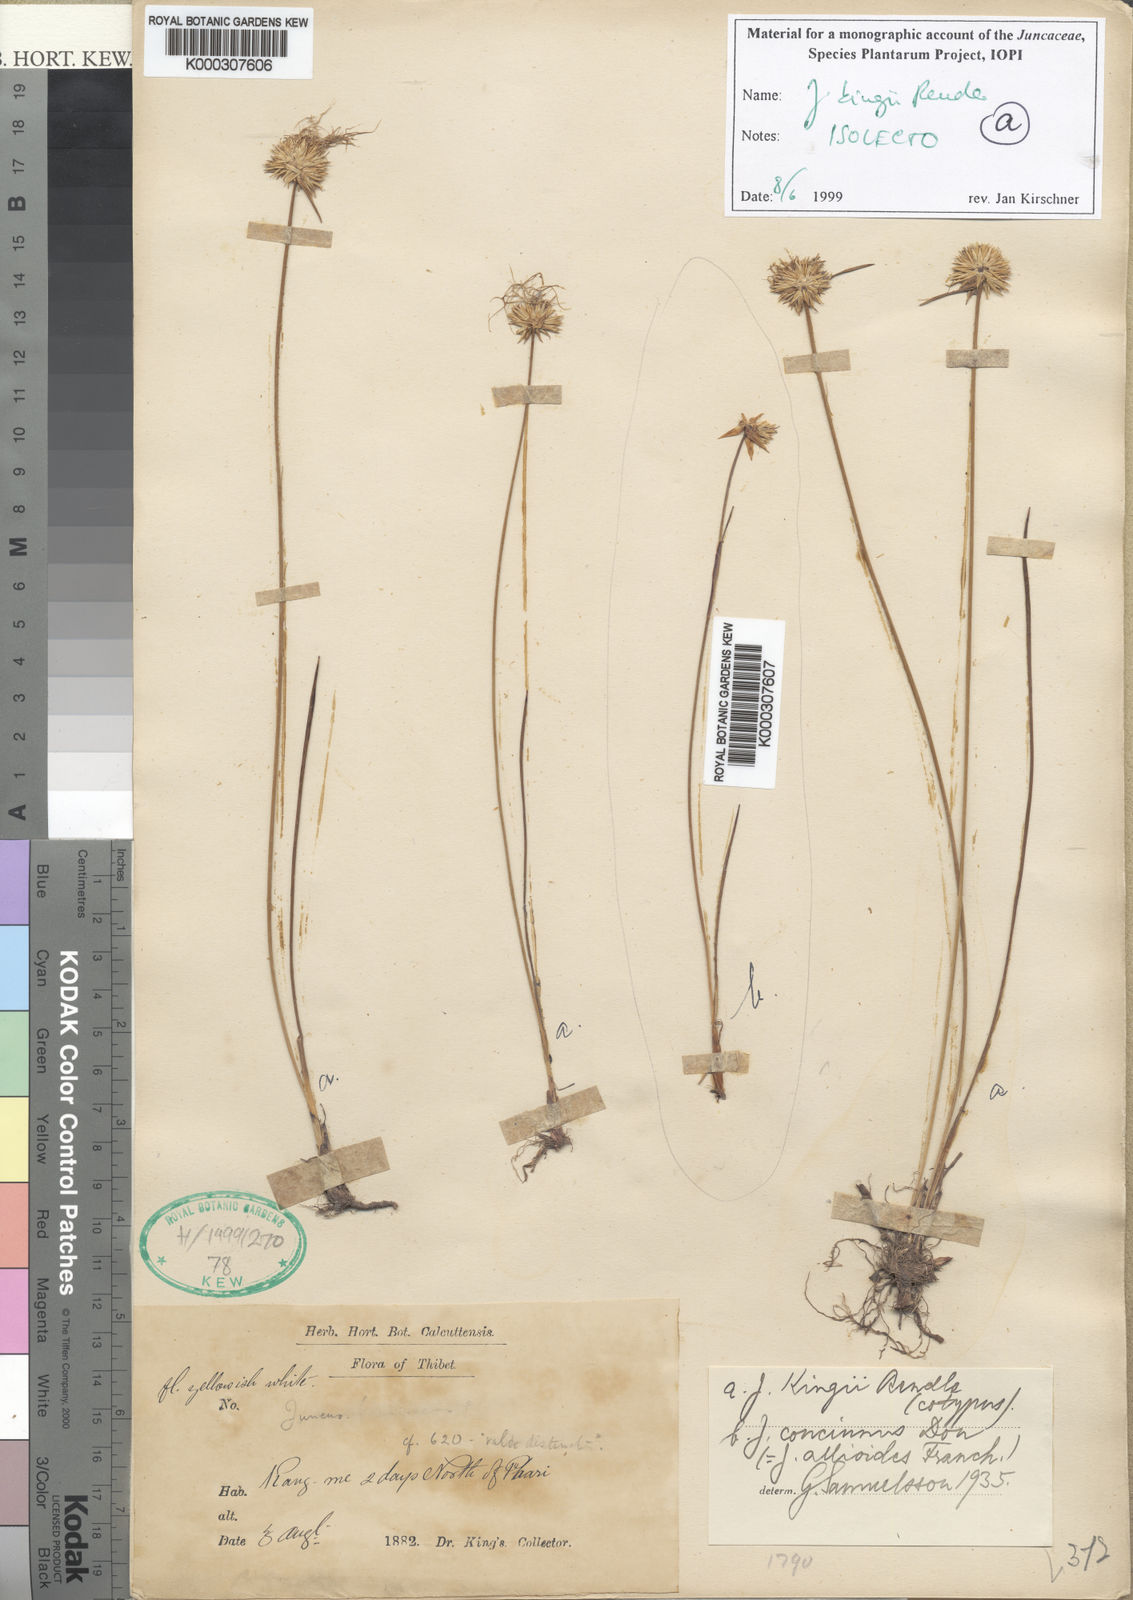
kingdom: Plantae
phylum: Tracheophyta
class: Liliopsida
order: Poales
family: Juncaceae
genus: Juncus
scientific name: Juncus kingii
